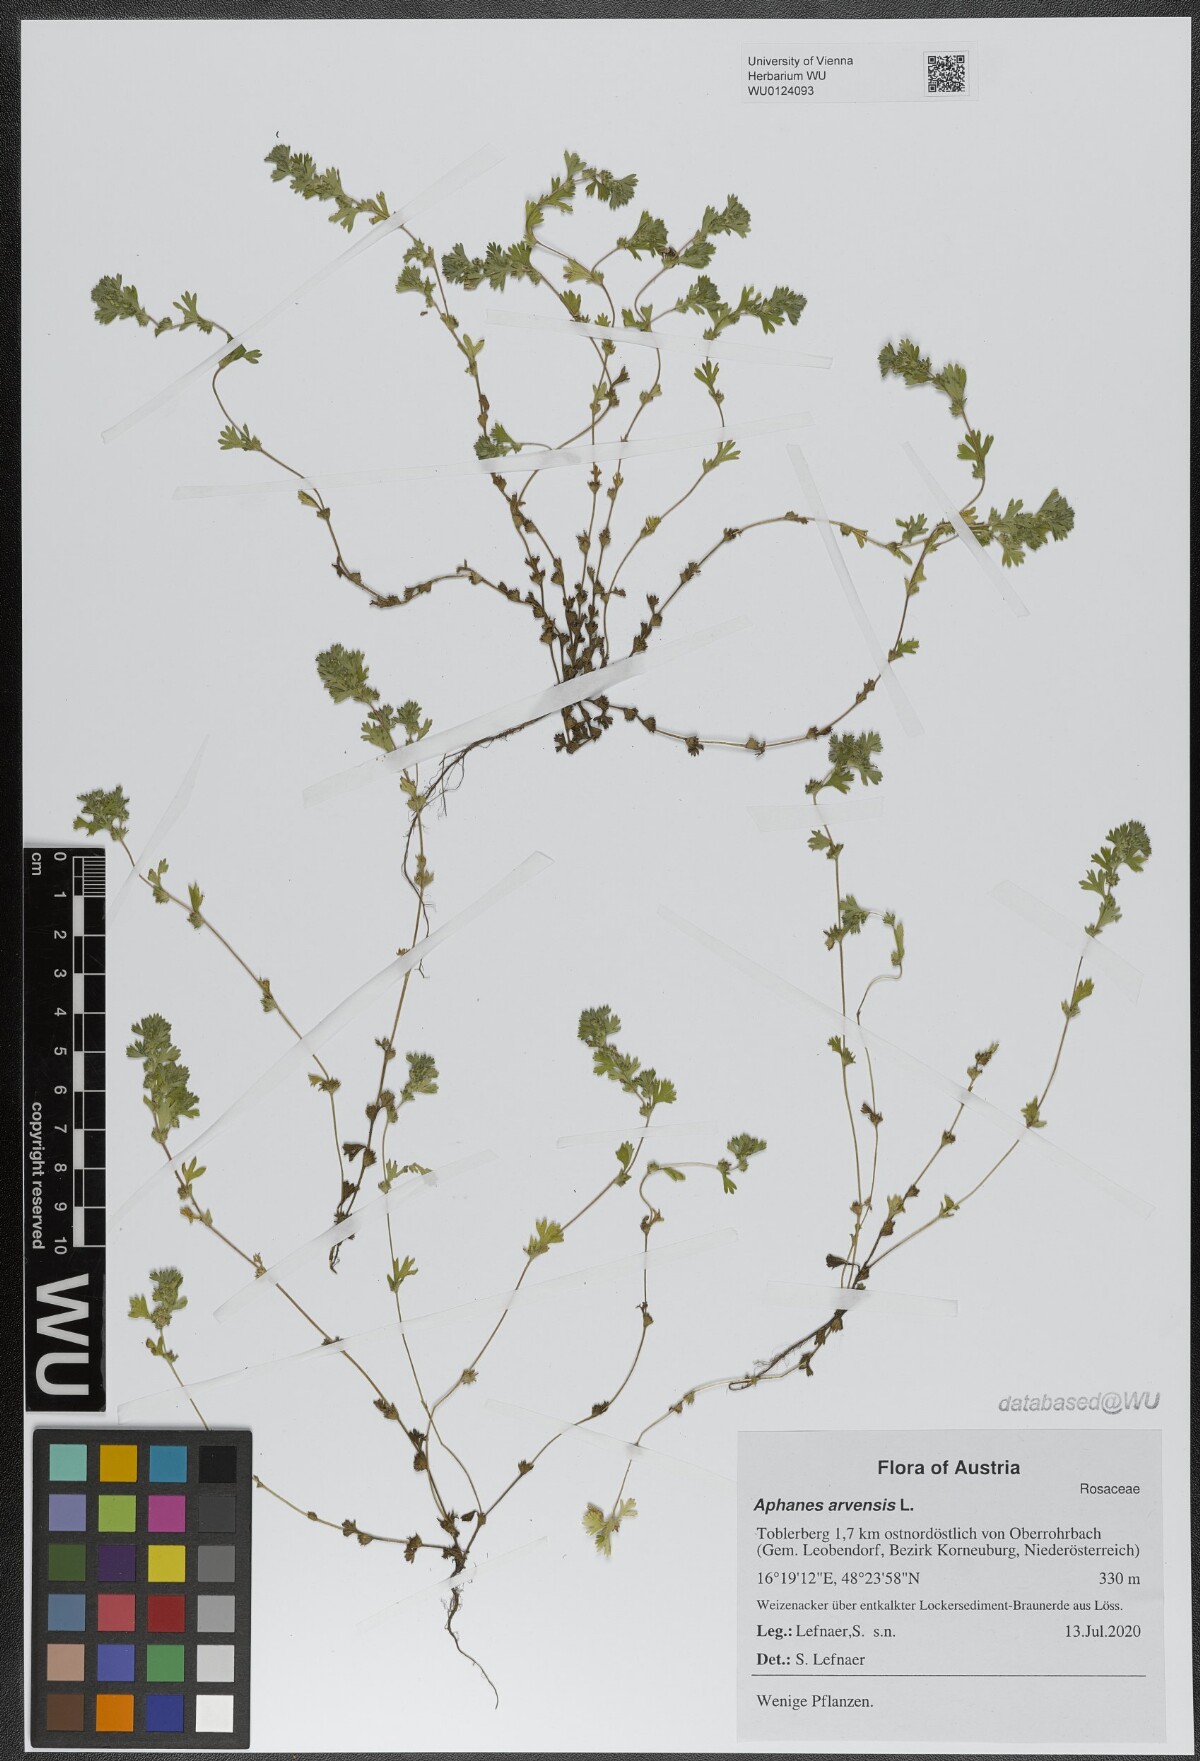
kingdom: Plantae
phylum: Tracheophyta
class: Magnoliopsida
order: Rosales
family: Rosaceae
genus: Aphanes
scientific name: Aphanes arvensis
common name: Parsley-piert
